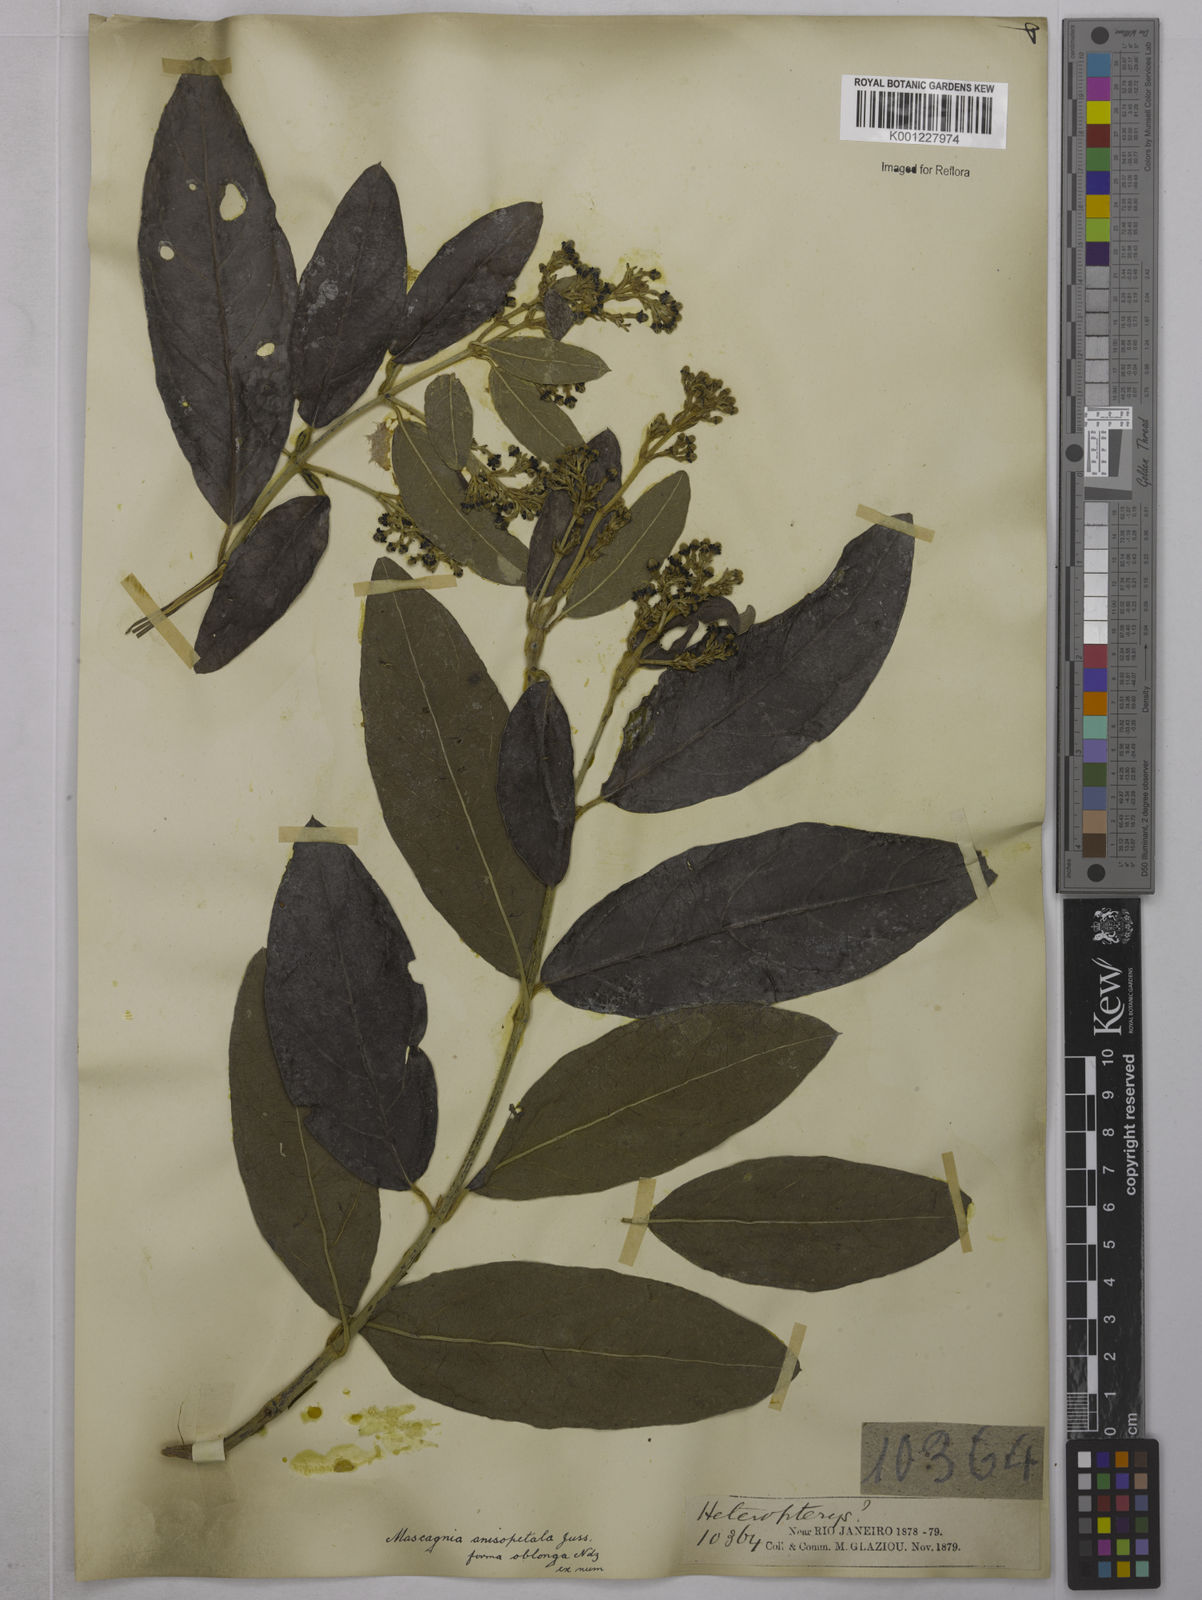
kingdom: Plantae
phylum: Tracheophyta
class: Magnoliopsida
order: Malpighiales
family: Malpighiaceae
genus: Alicia
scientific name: Alicia anisopetala
